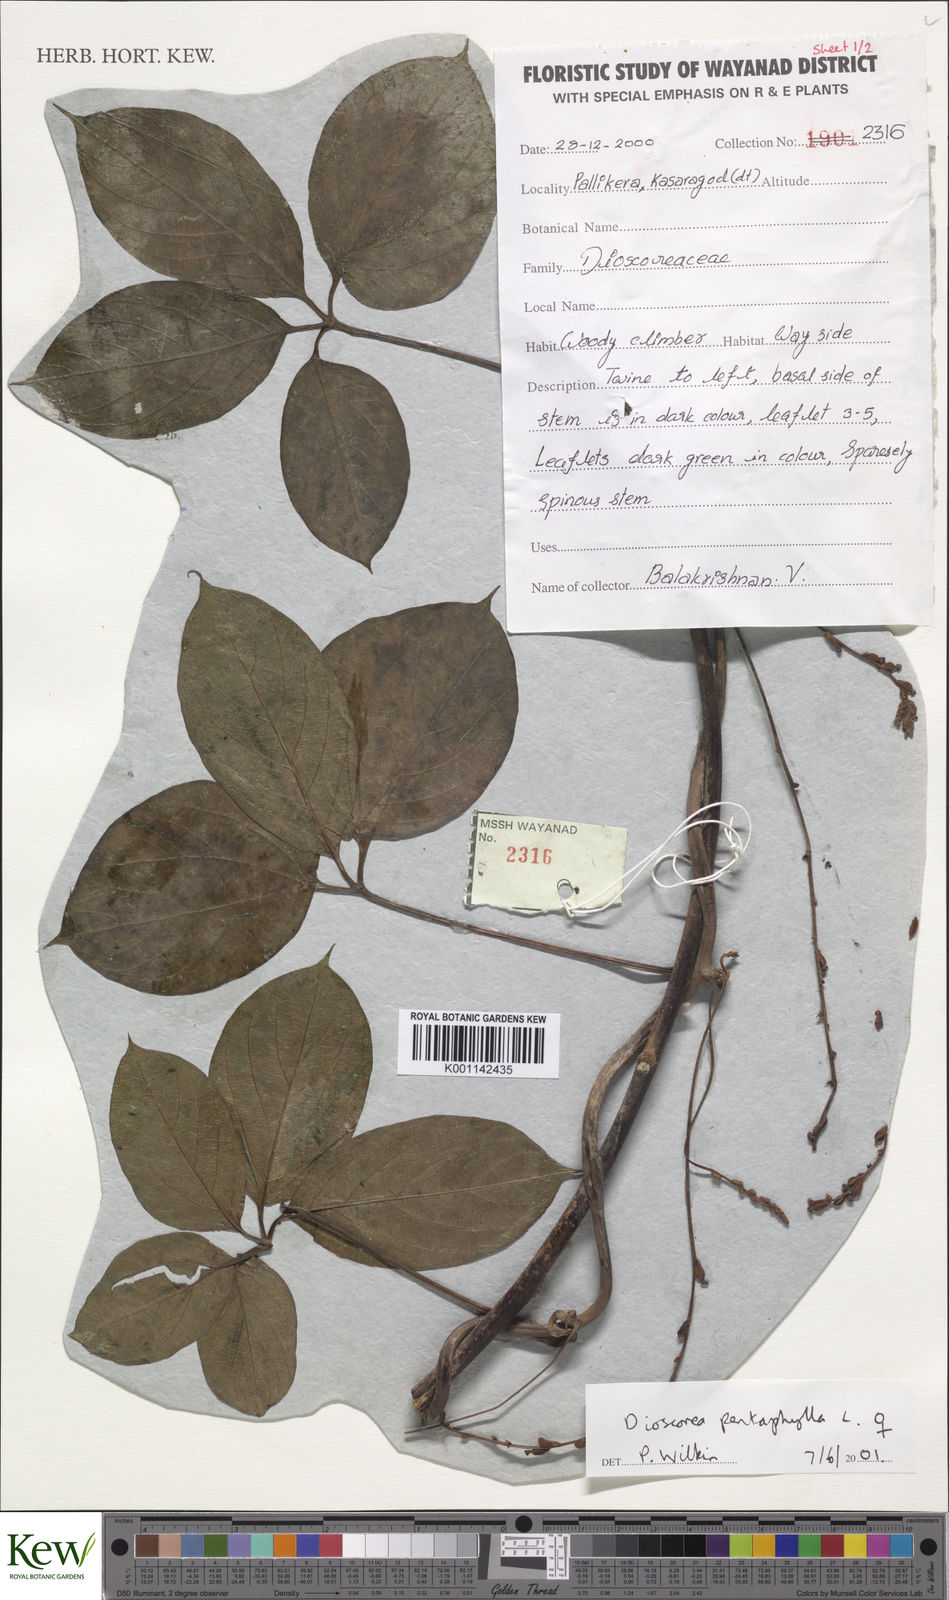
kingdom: Plantae
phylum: Tracheophyta
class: Liliopsida
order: Dioscoreales
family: Dioscoreaceae
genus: Dioscorea
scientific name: Dioscorea pentaphylla
